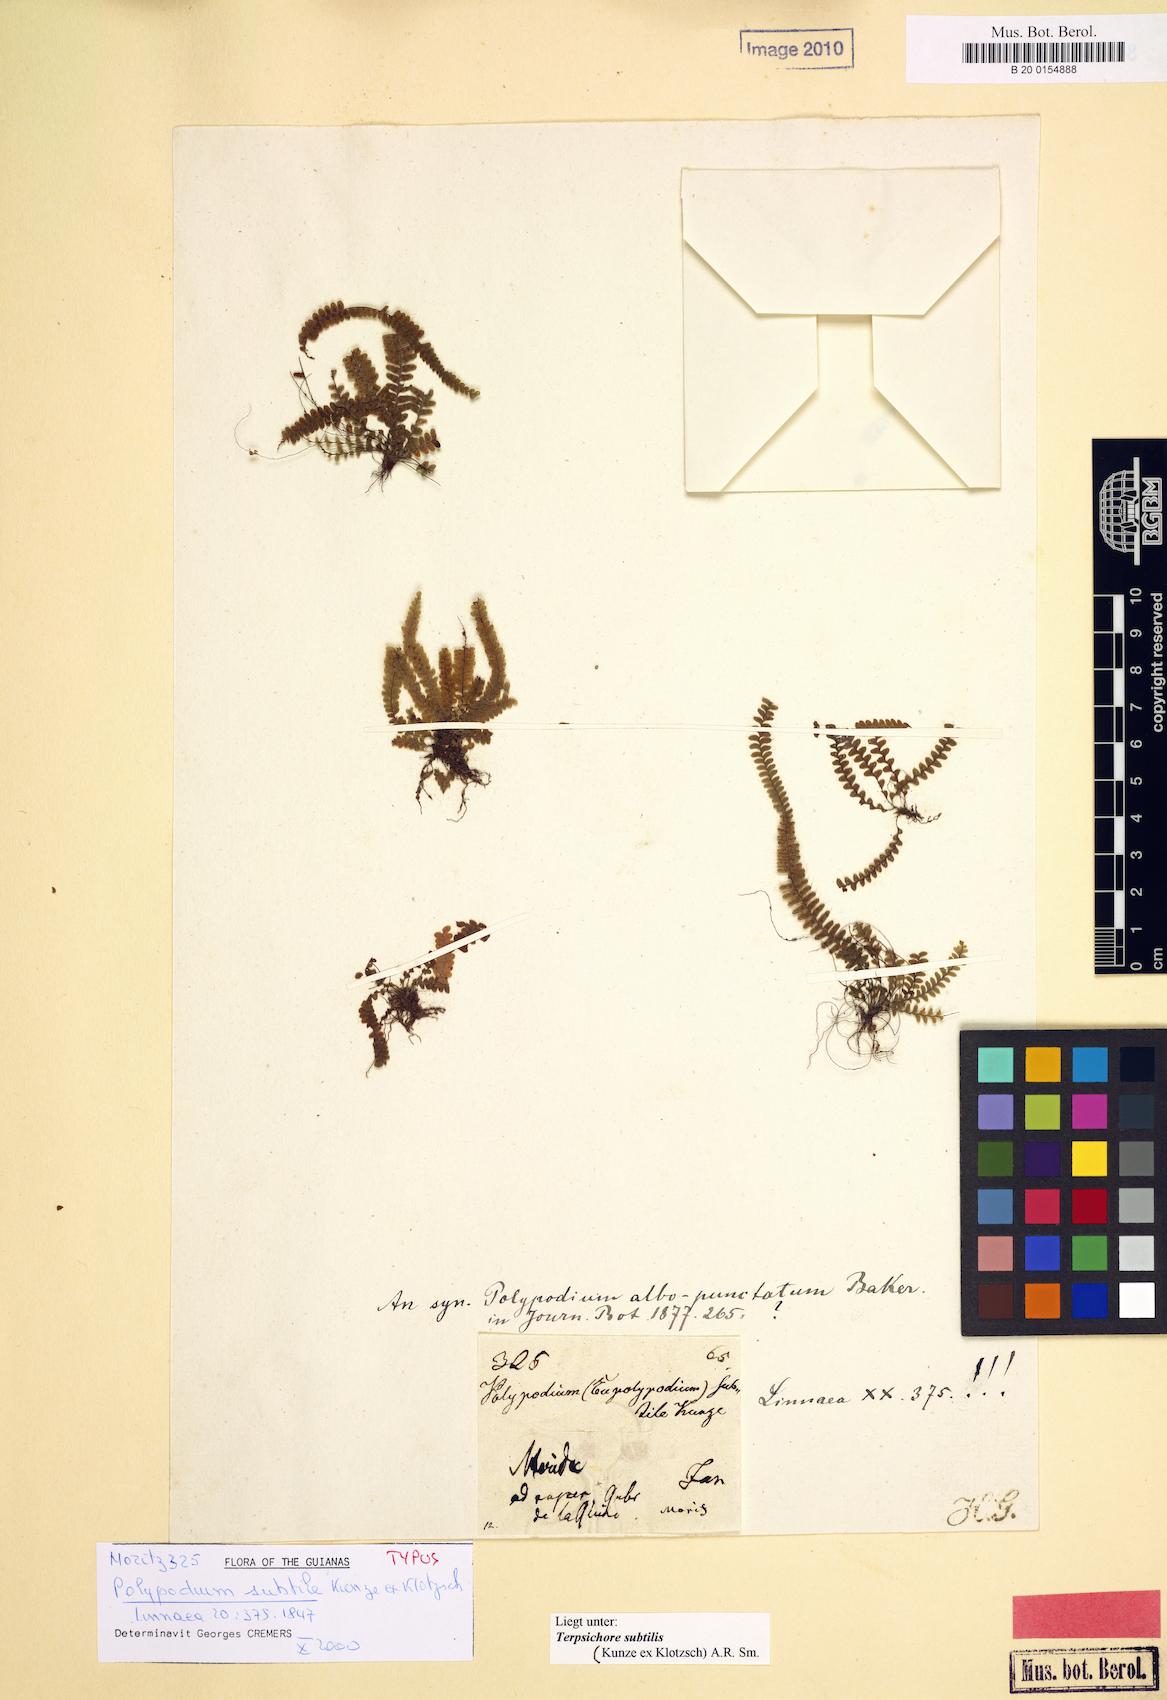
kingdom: Plantae
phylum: Tracheophyta
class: Polypodiopsida
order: Polypodiales
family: Polypodiaceae
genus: Mycopteris
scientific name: Mycopteris subtilis
